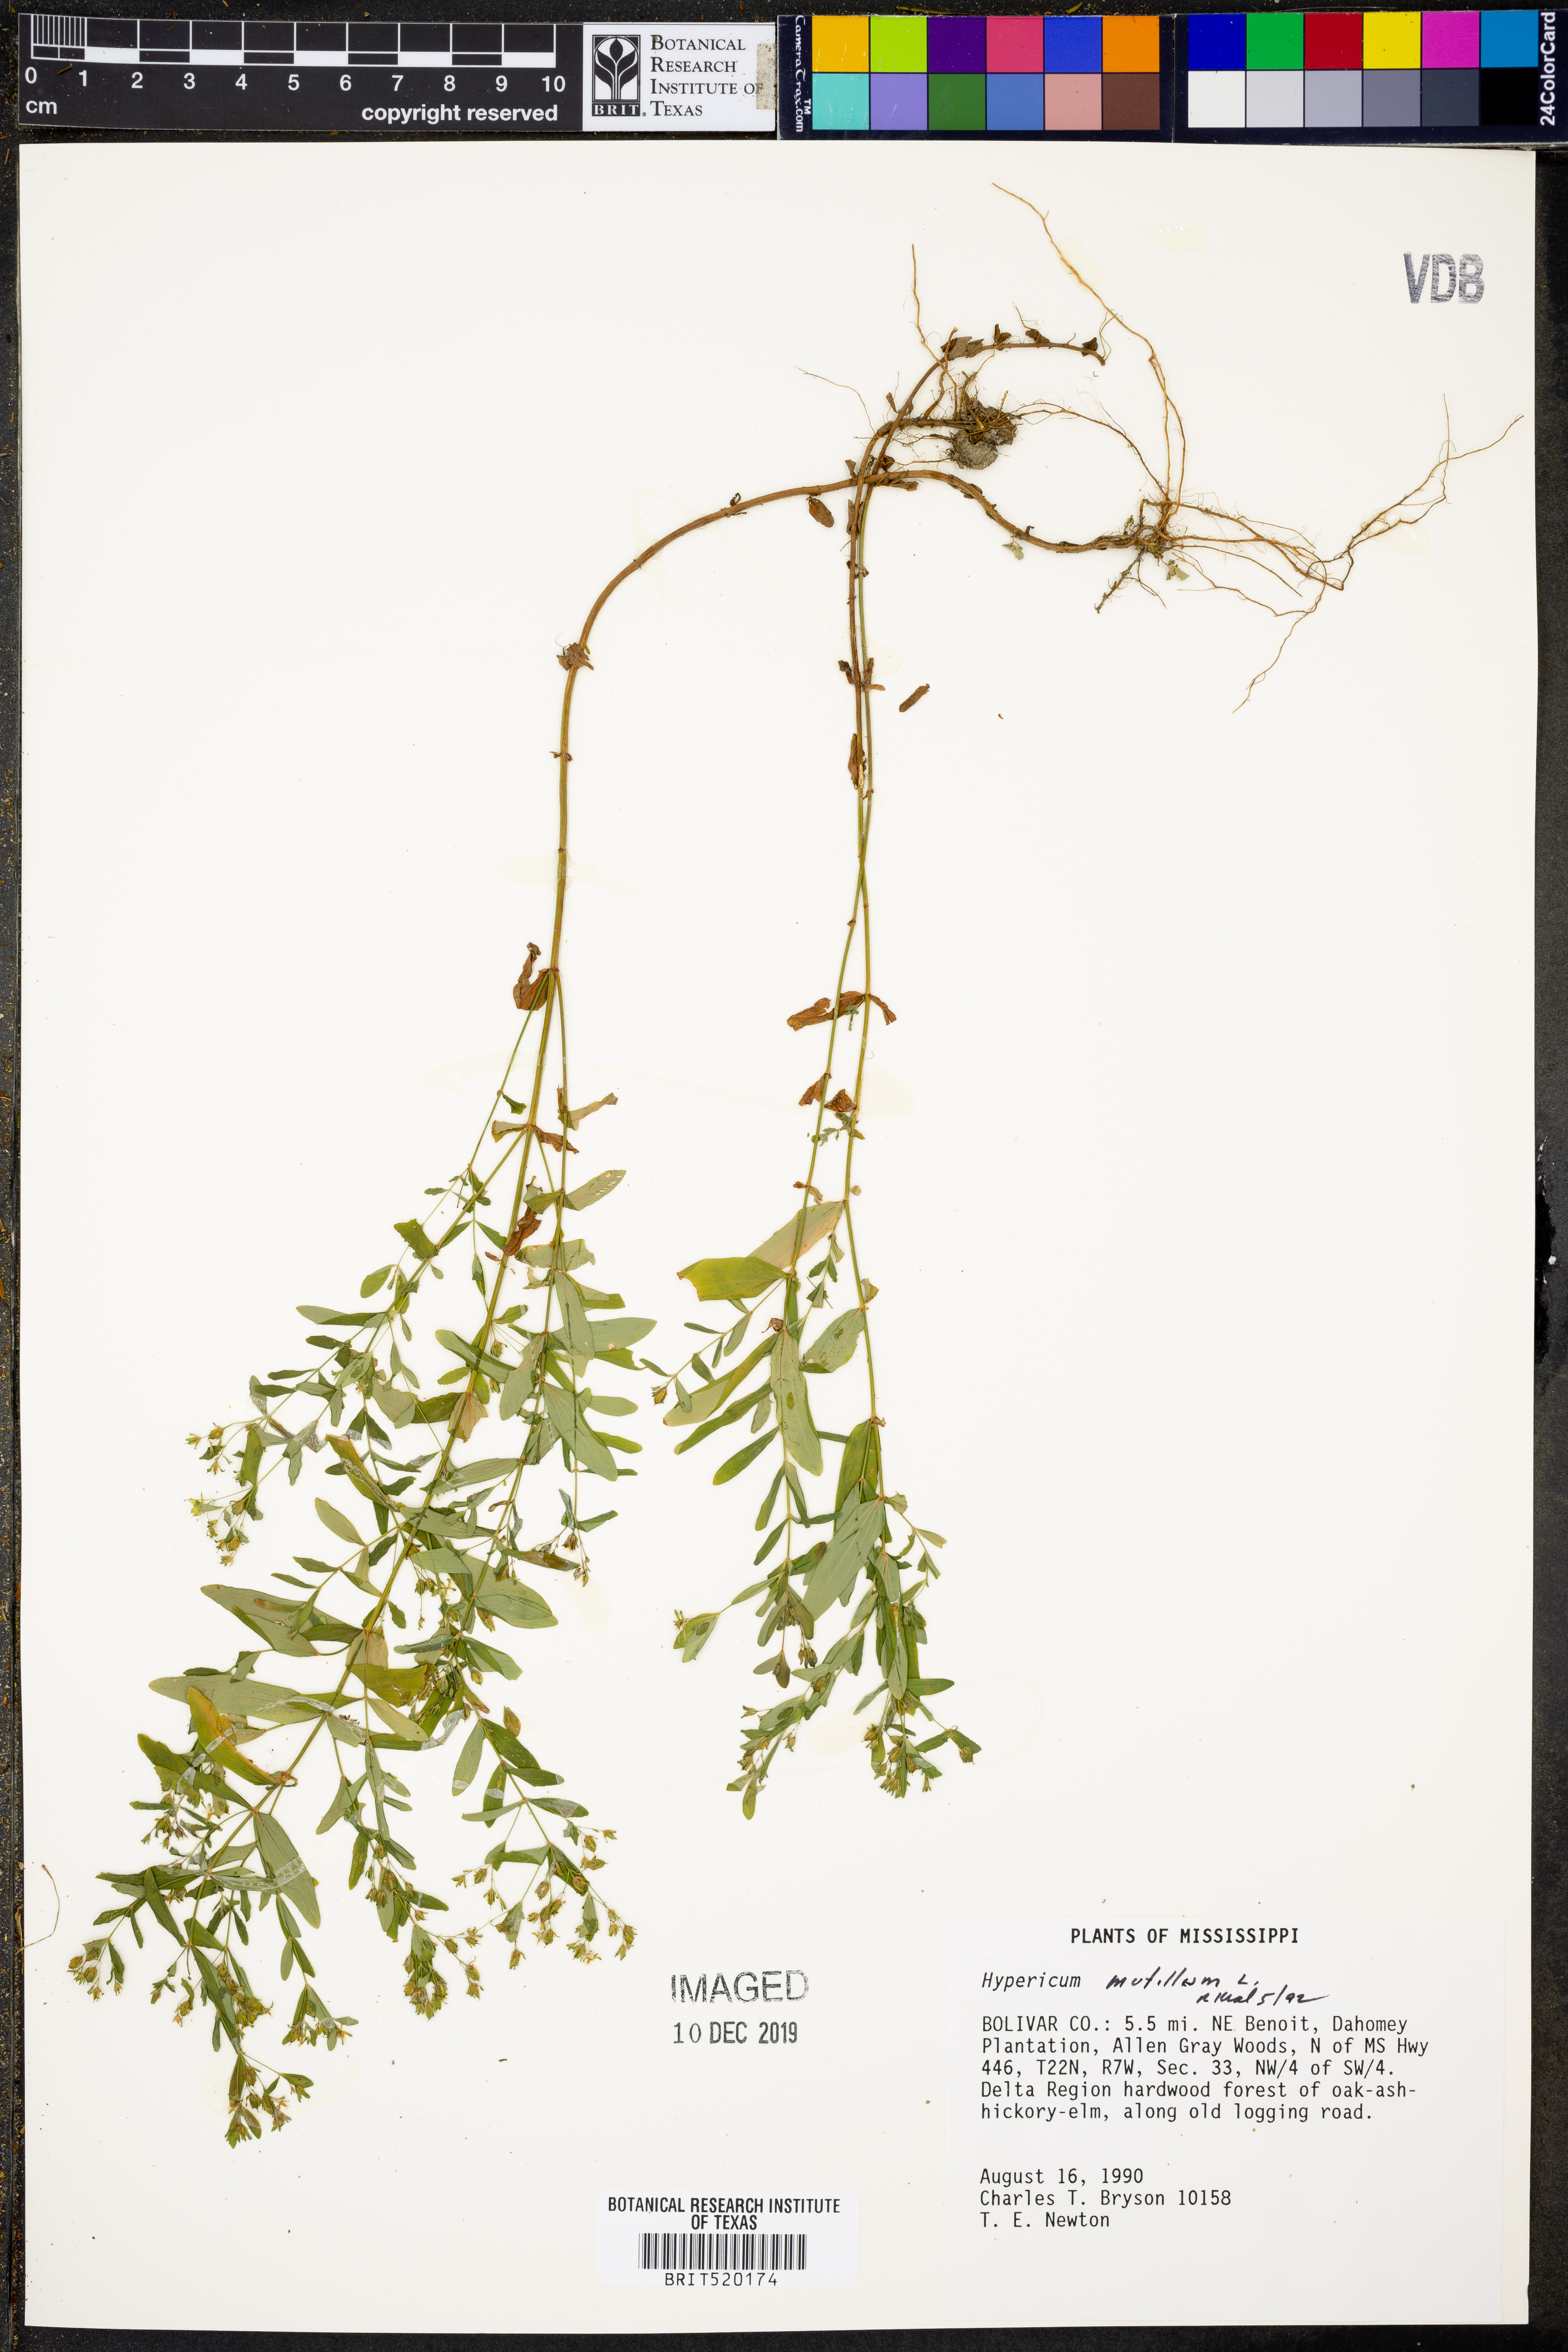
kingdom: Plantae
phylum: Tracheophyta
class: Magnoliopsida
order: Malpighiales
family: Hypericaceae
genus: Hypericum
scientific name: Hypericum mutilum
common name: Dwarf st. john's-wort
